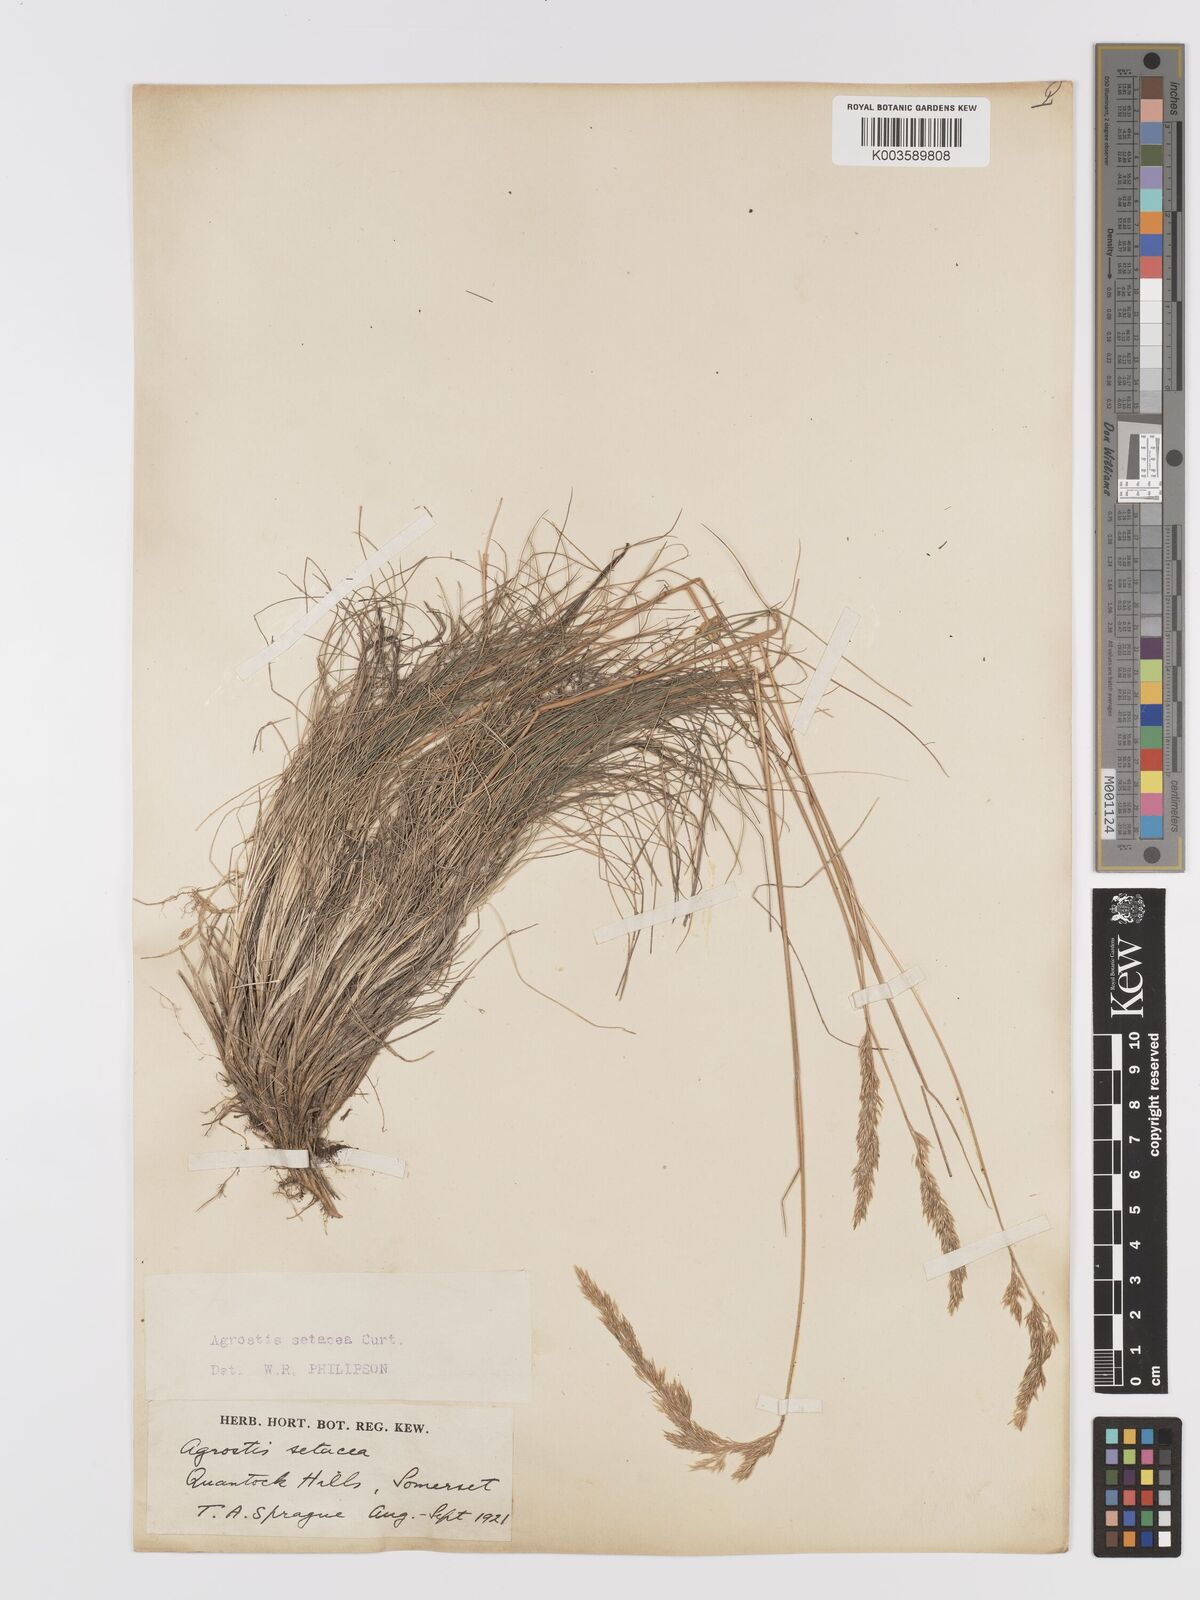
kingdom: Plantae
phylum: Tracheophyta
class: Liliopsida
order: Poales
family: Poaceae
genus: Alpagrostis
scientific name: Alpagrostis setacea
